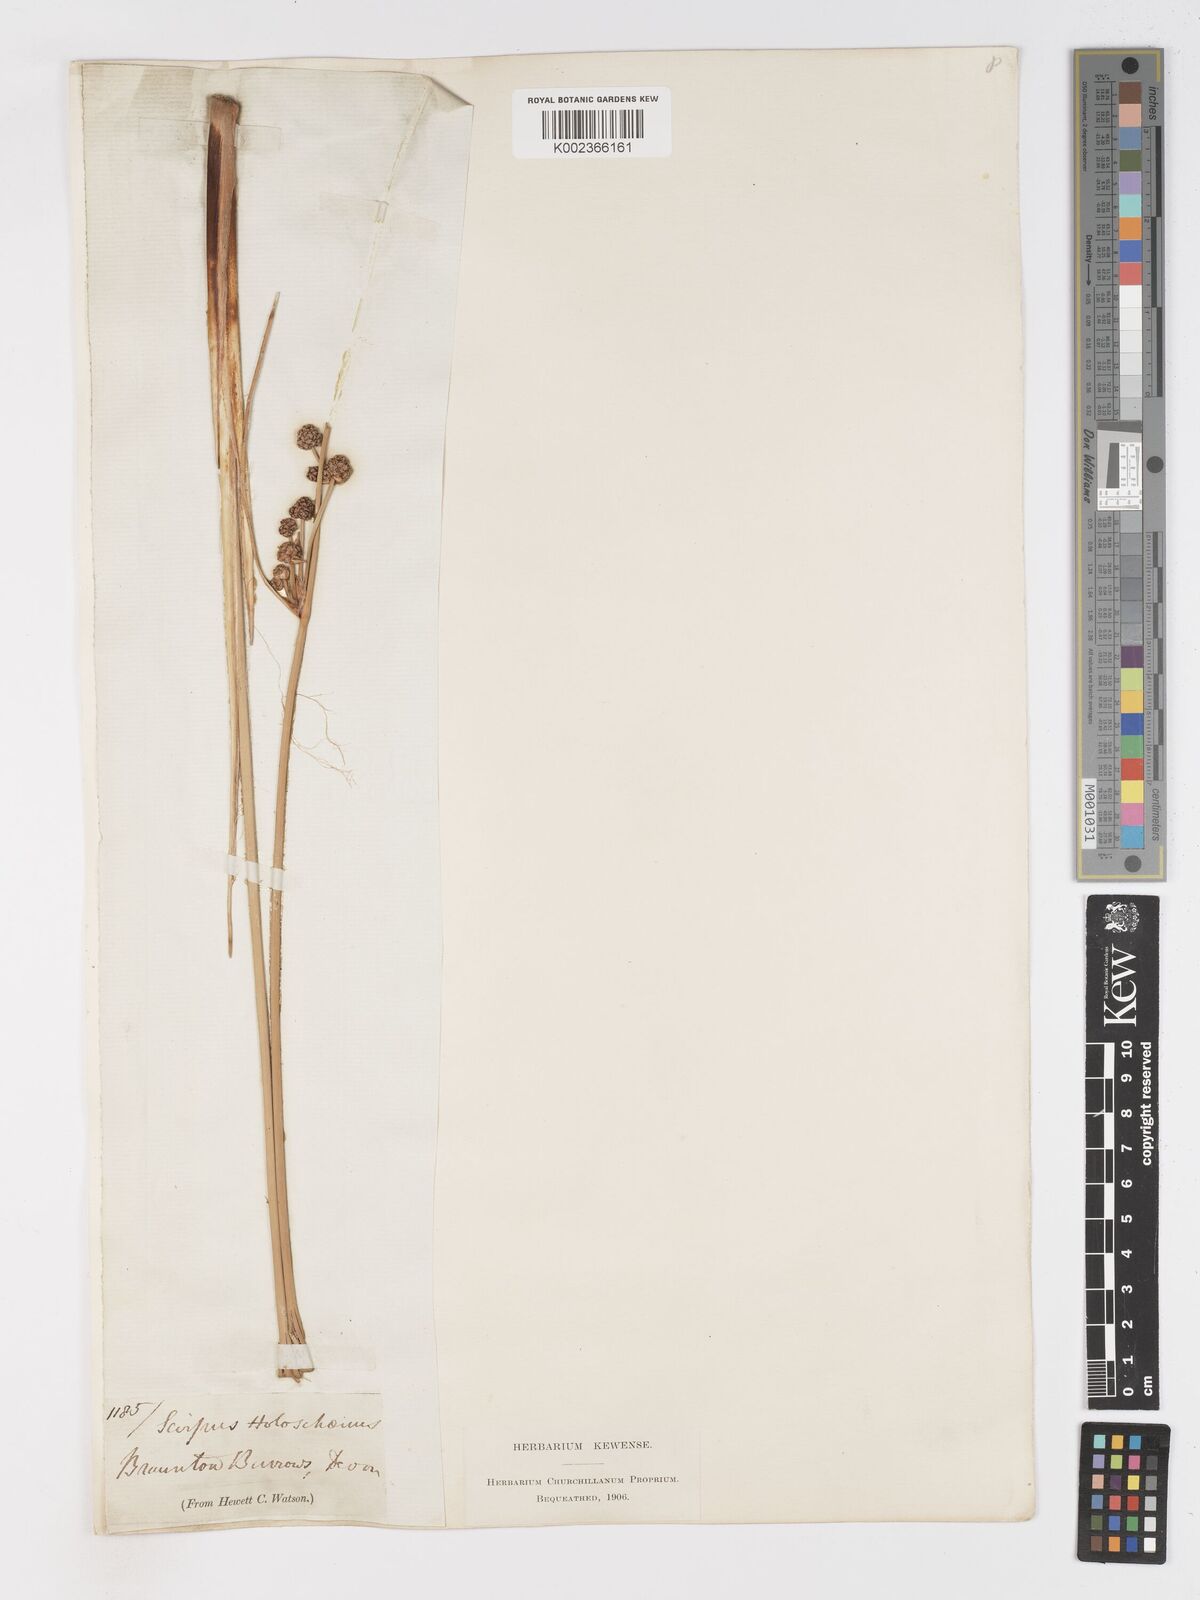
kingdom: Plantae
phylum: Tracheophyta
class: Liliopsida
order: Poales
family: Cyperaceae
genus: Scirpoides
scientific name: Scirpoides holoschoenus
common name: Round-headed club-rush
